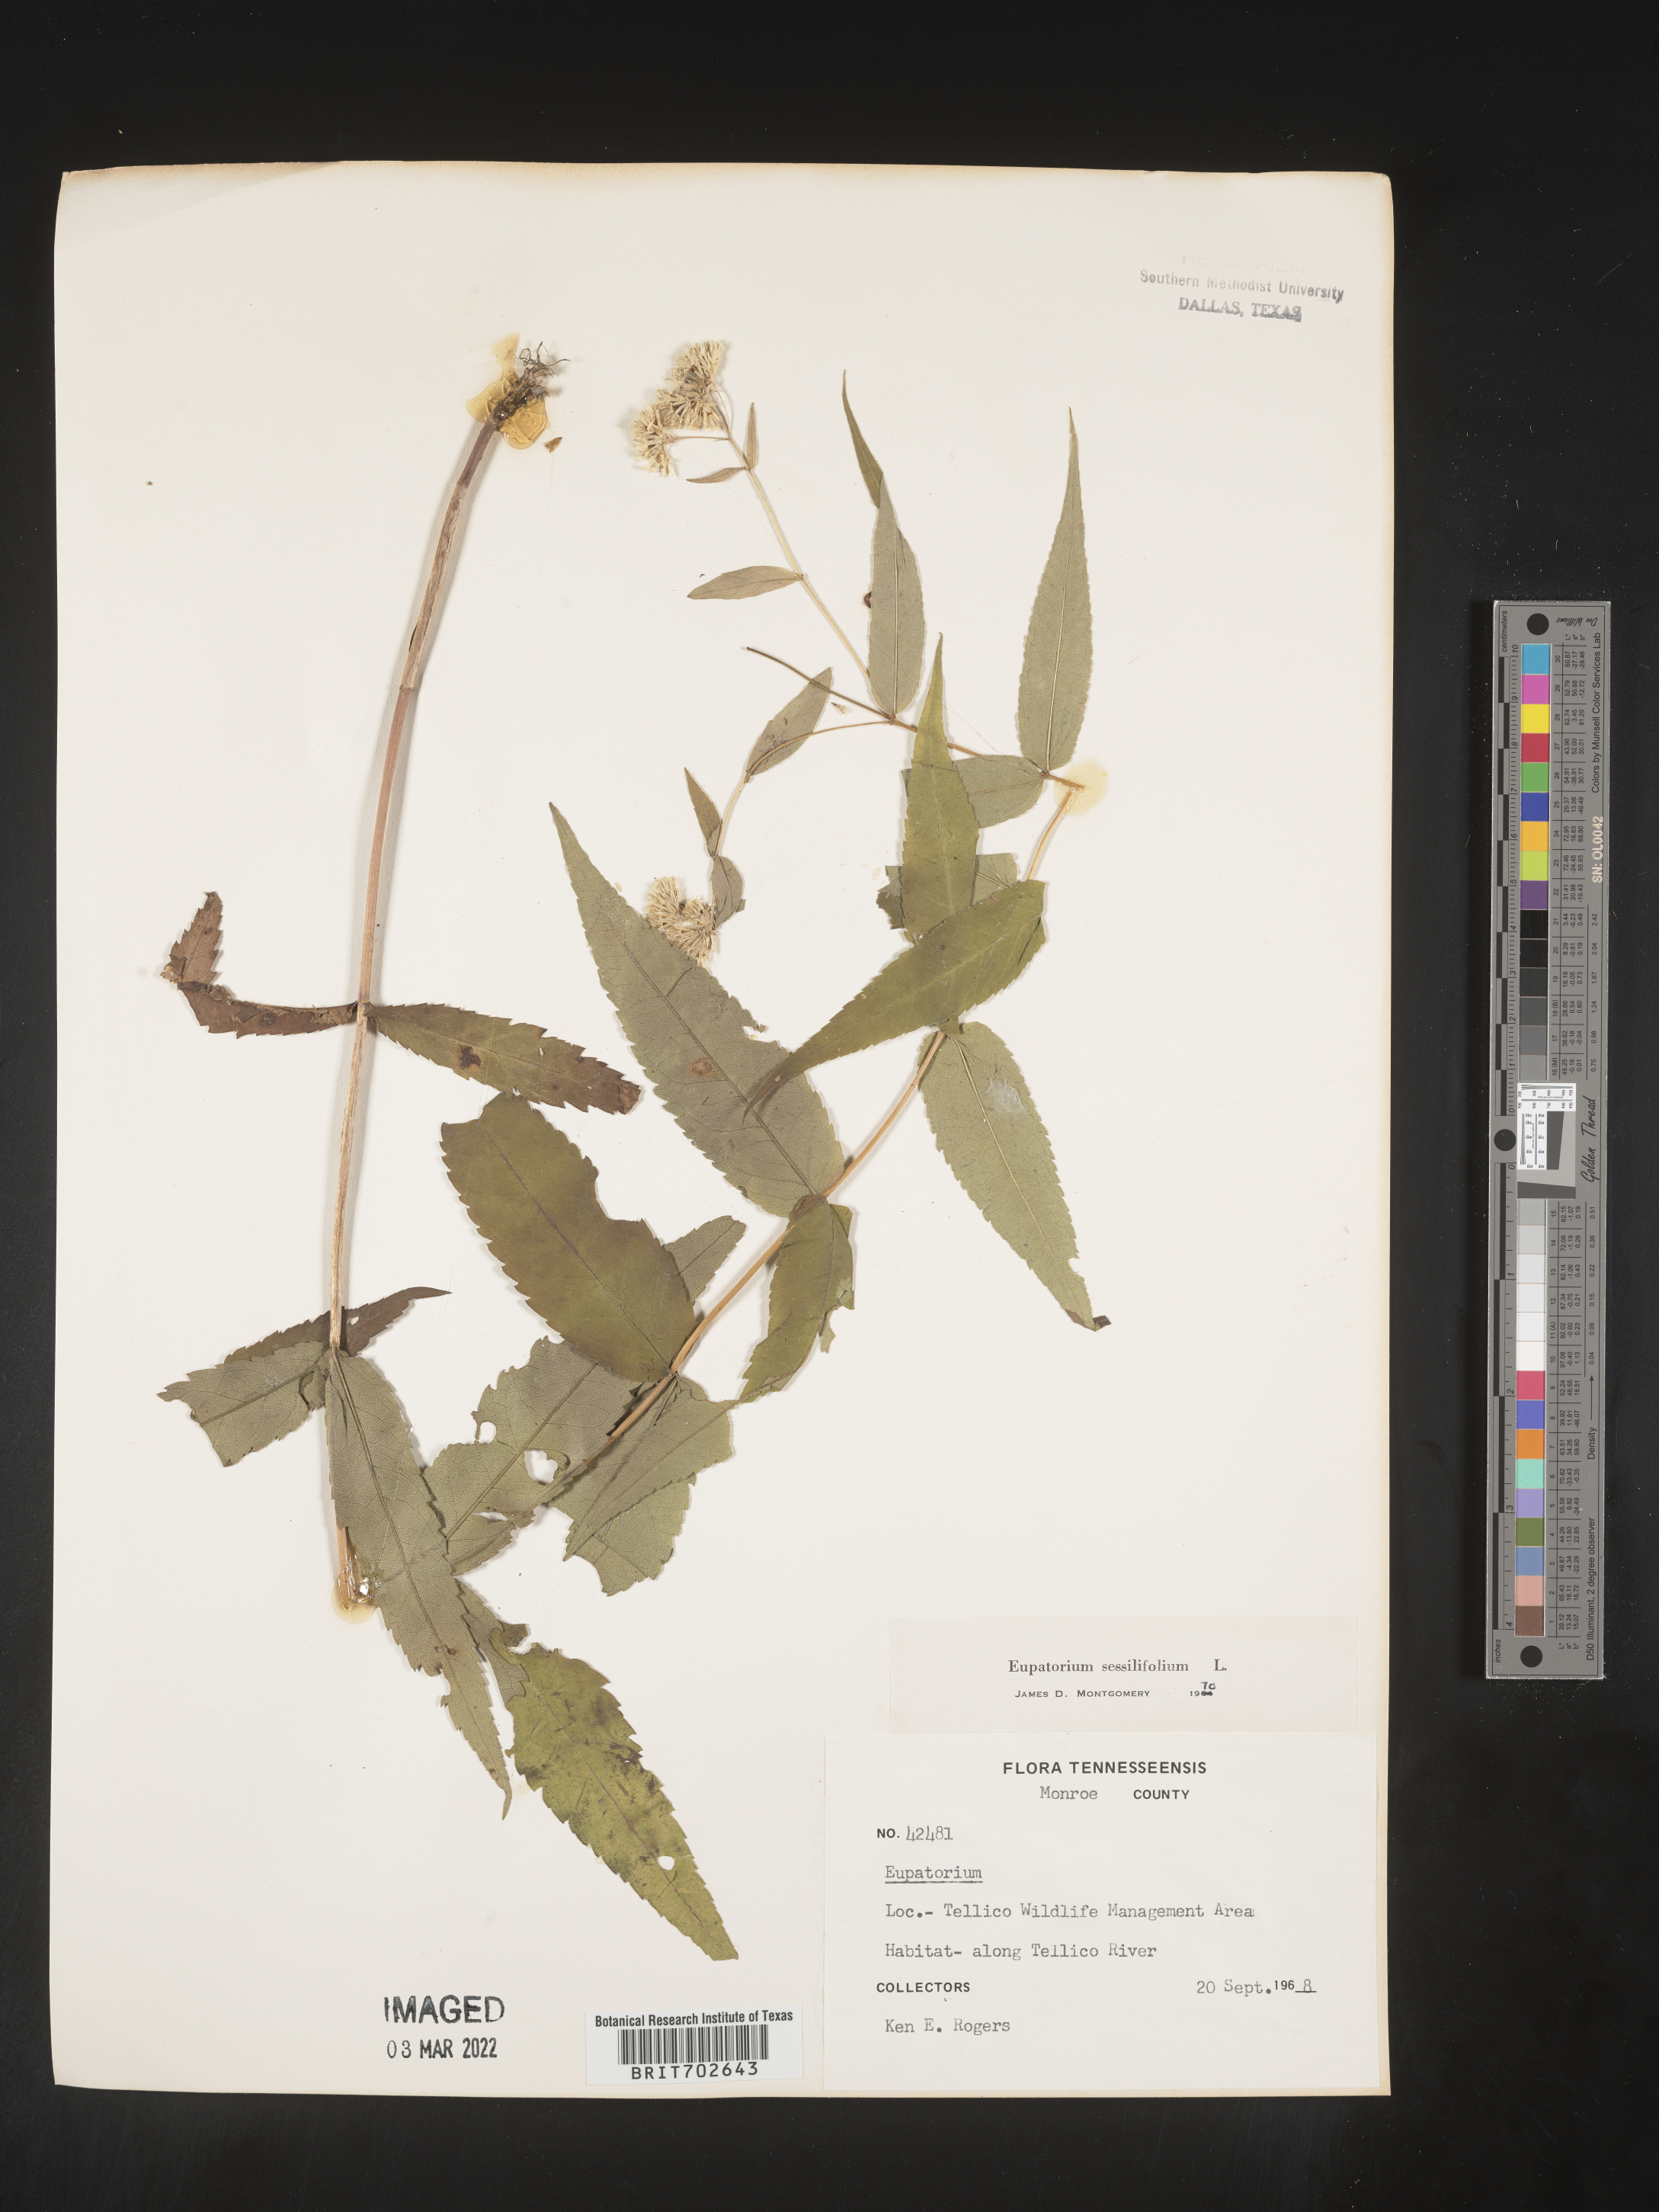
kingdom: Plantae
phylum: Tracheophyta
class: Magnoliopsida
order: Asterales
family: Asteraceae
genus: Eupatorium
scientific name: Eupatorium sessilifolium
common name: Upland boneset
